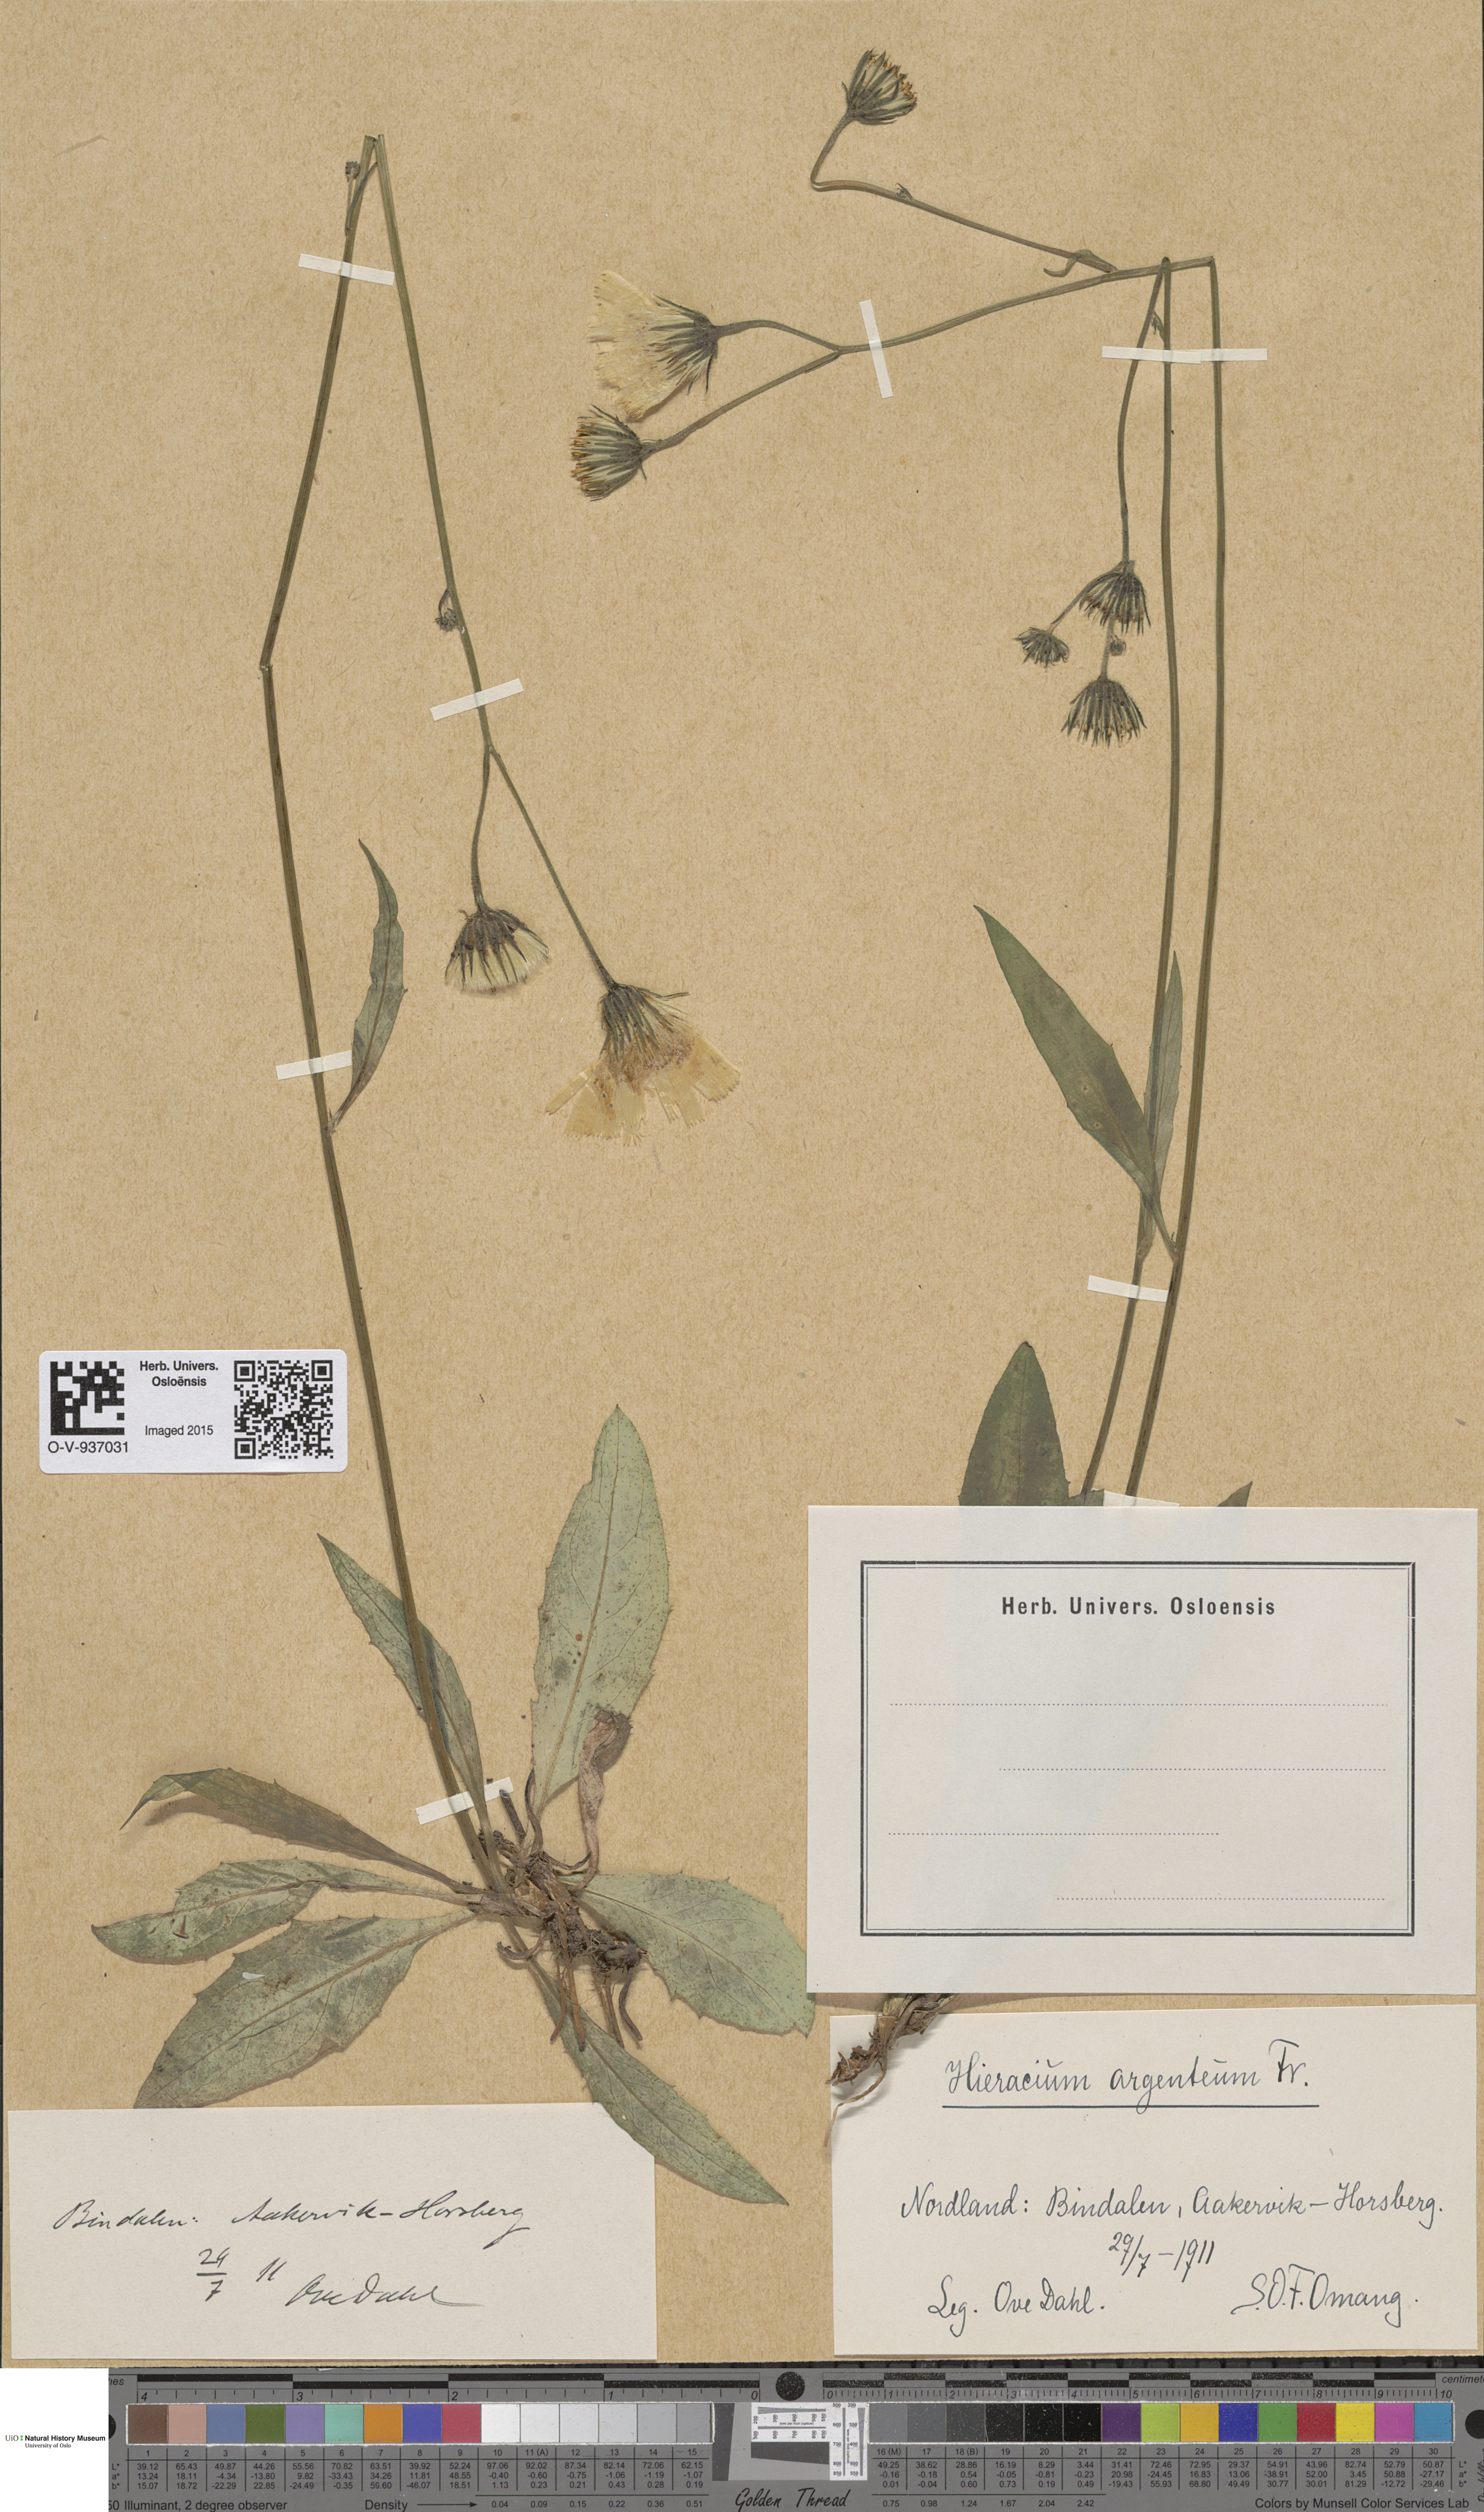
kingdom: Plantae
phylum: Tracheophyta
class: Magnoliopsida
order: Asterales
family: Asteraceae
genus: Hieracium
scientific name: Hieracium argenteum
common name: Silver hawkweed
